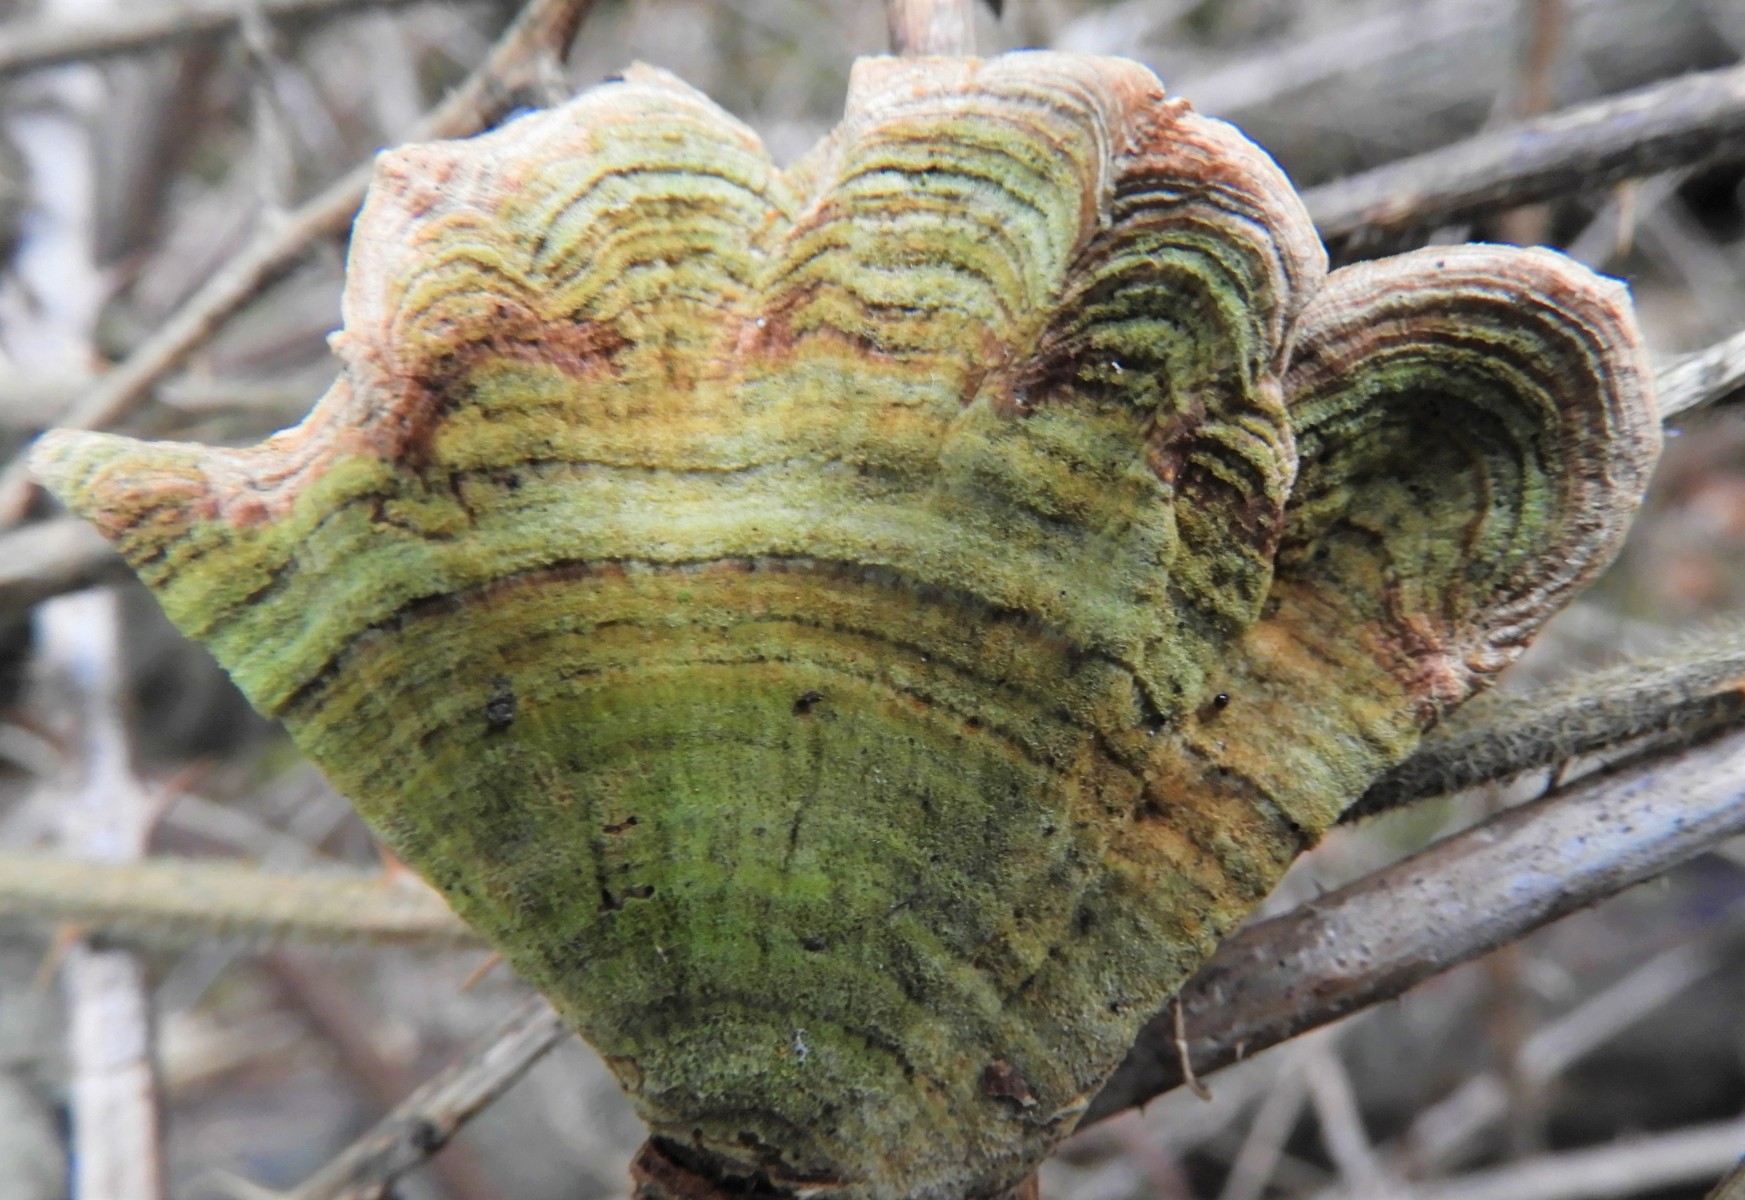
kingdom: Fungi
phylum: Basidiomycota
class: Agaricomycetes
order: Russulales
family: Stereaceae
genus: Stereum
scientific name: Stereum subtomentosum
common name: smuk lædersvamp
